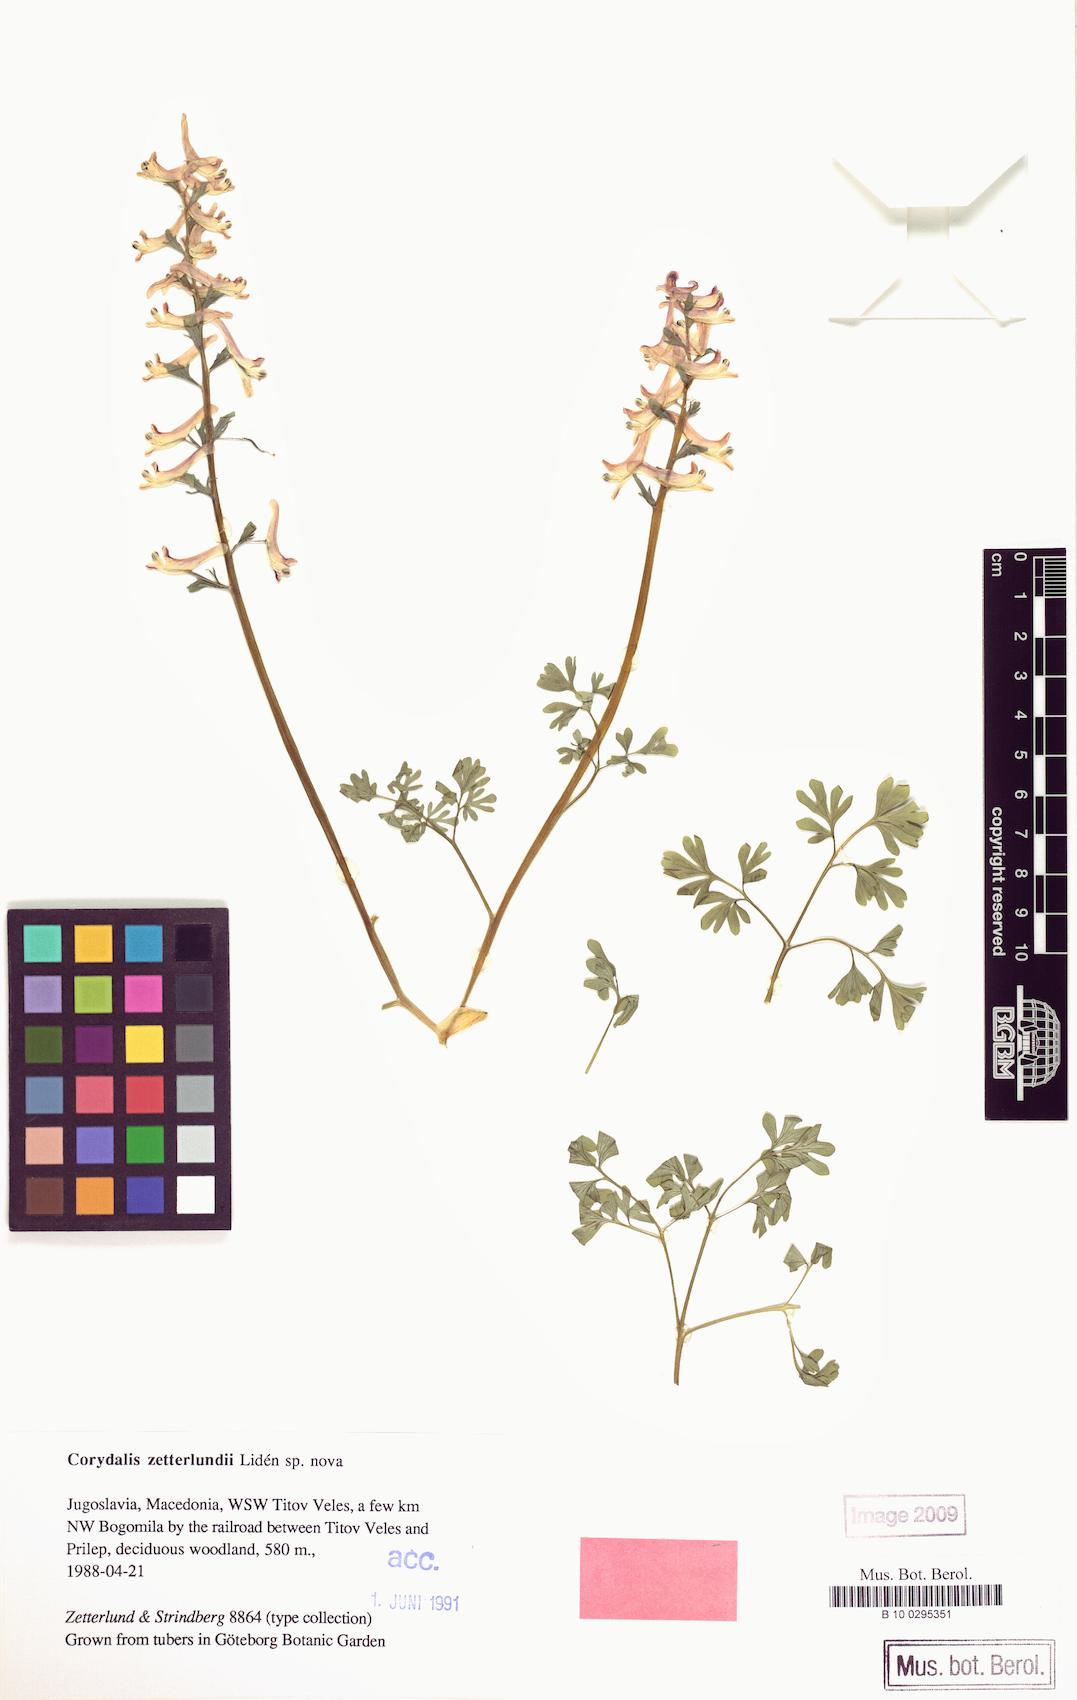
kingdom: Plantae
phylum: Tracheophyta
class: Magnoliopsida
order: Ranunculales
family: Papaveraceae
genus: Corydalis
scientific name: Corydalis zetterlundii
